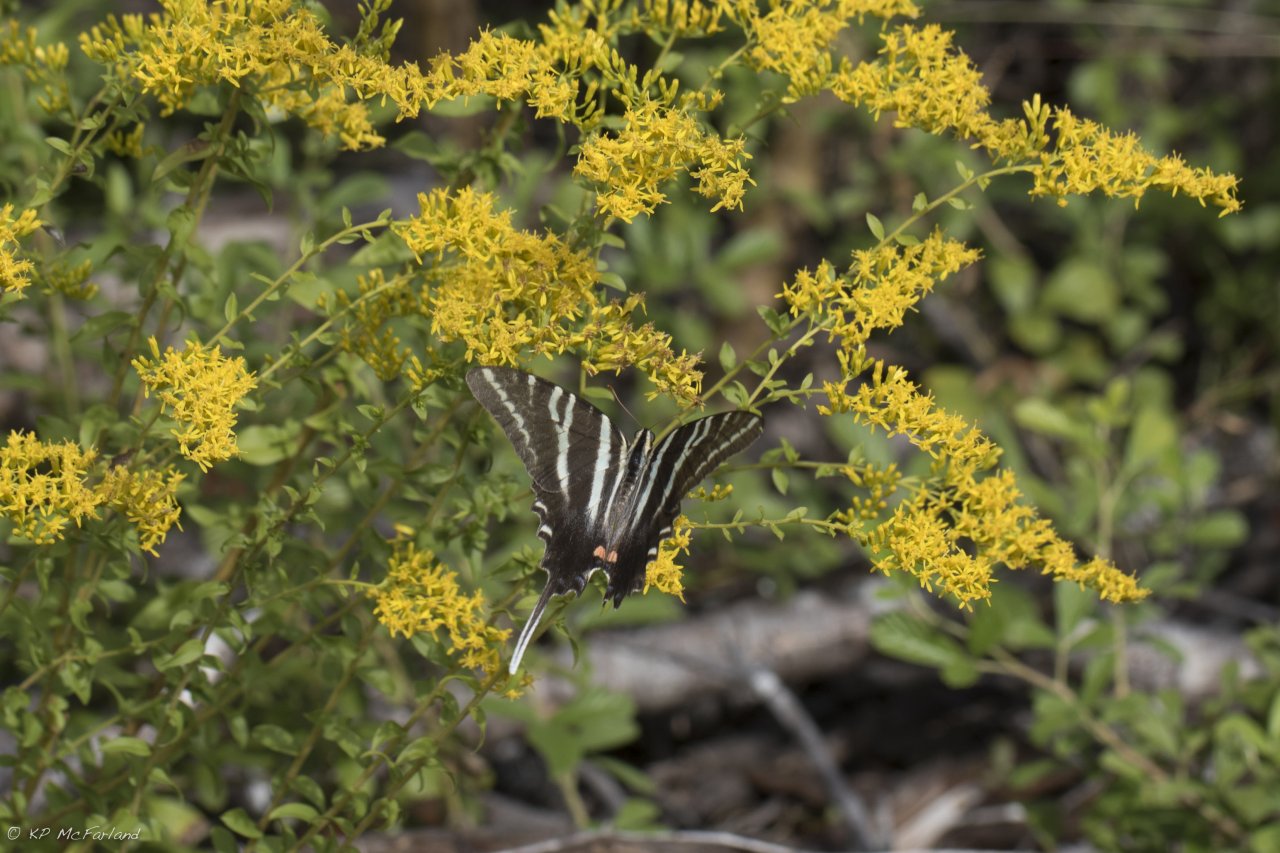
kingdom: Animalia
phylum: Arthropoda
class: Insecta
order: Lepidoptera
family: Papilionidae
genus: Protographium
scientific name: Protographium marcellus
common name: Zebra Swallowtail
